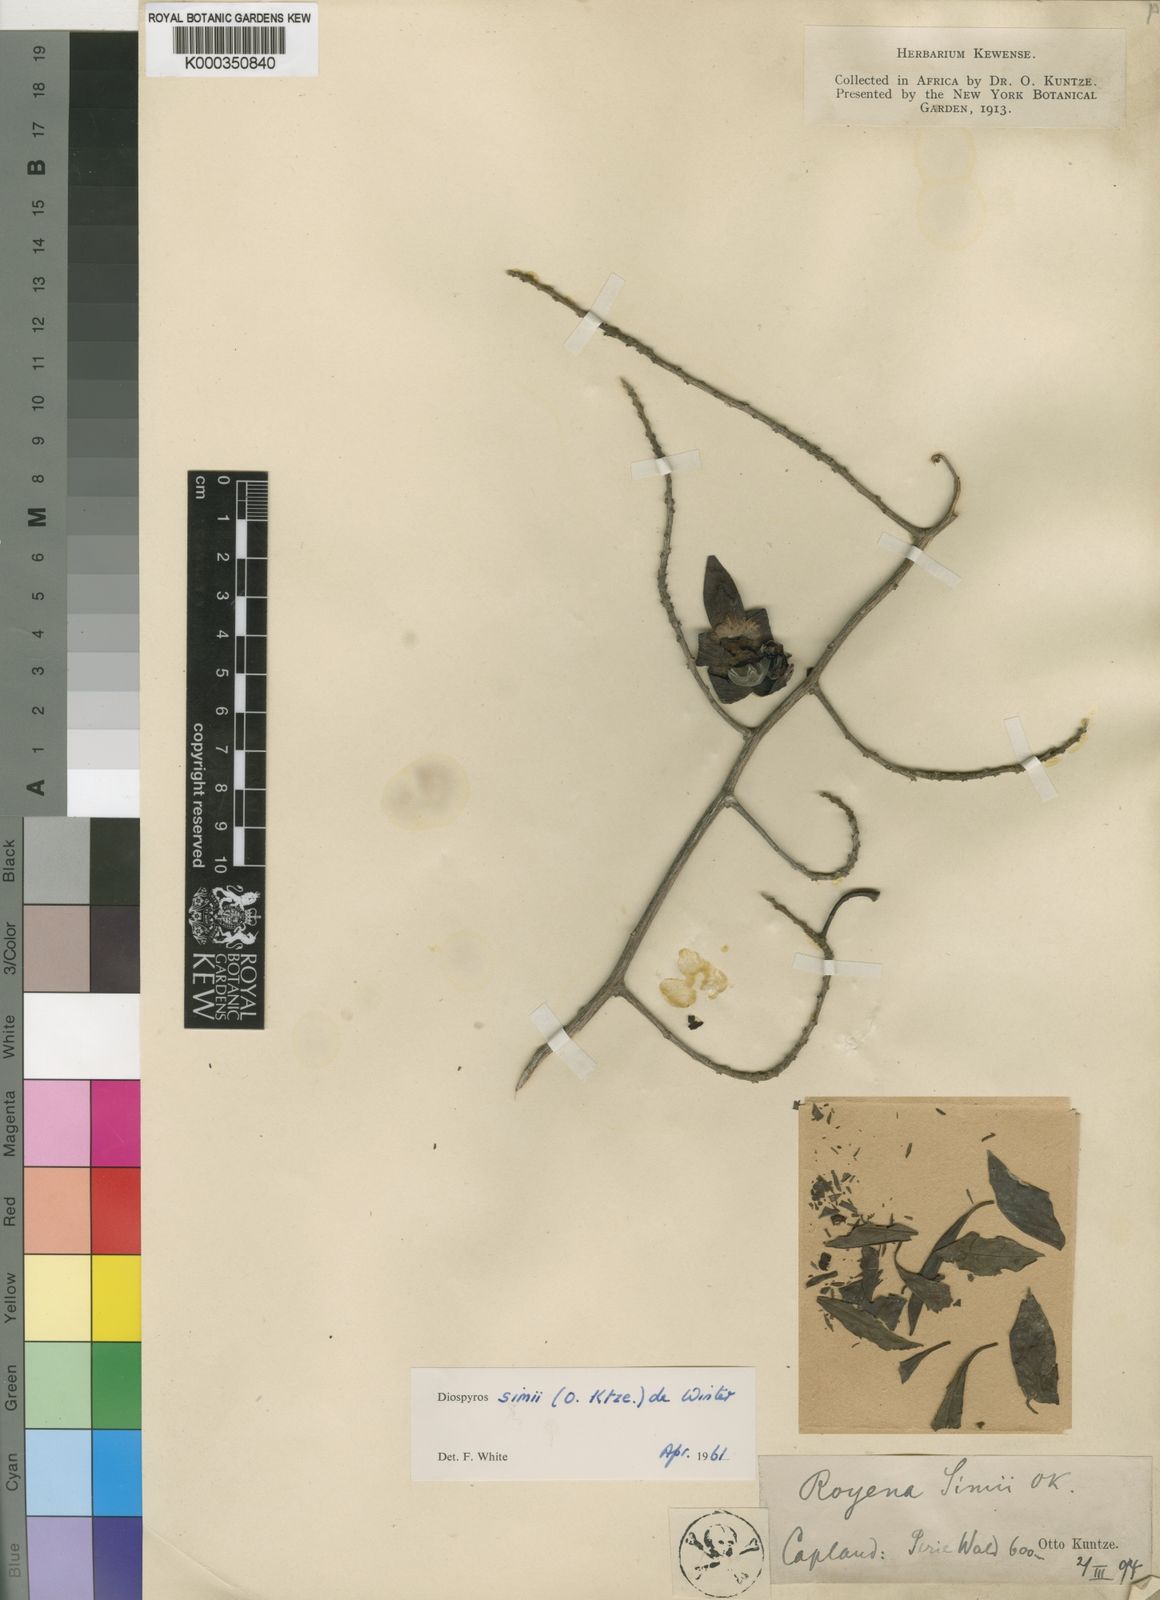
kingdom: Plantae
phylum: Tracheophyta
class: Magnoliopsida
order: Ericales
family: Ebenaceae
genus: Diospyros
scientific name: Diospyros simii
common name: Climbing star-apple
